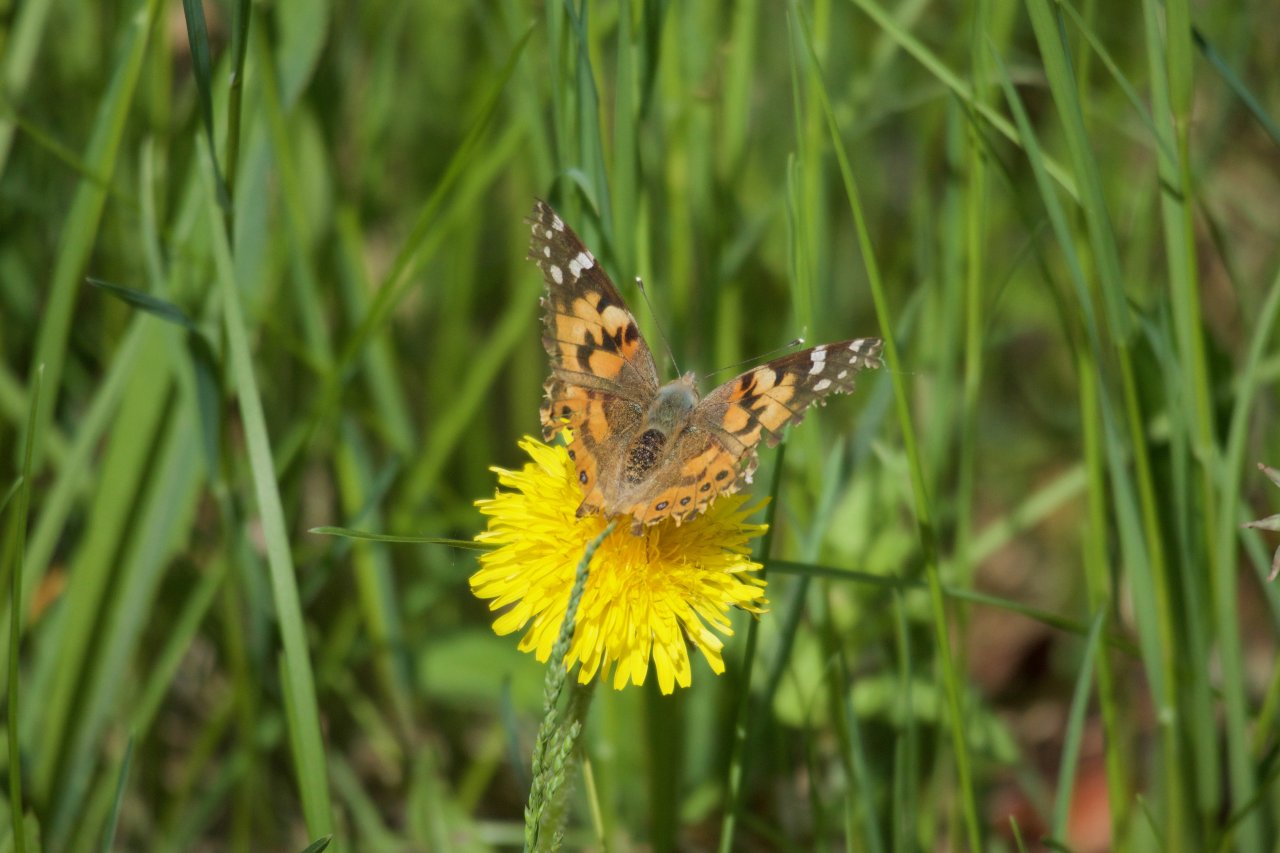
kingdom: Animalia
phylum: Arthropoda
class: Insecta
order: Lepidoptera
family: Nymphalidae
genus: Vanessa
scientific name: Vanessa cardui
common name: Painted Lady
